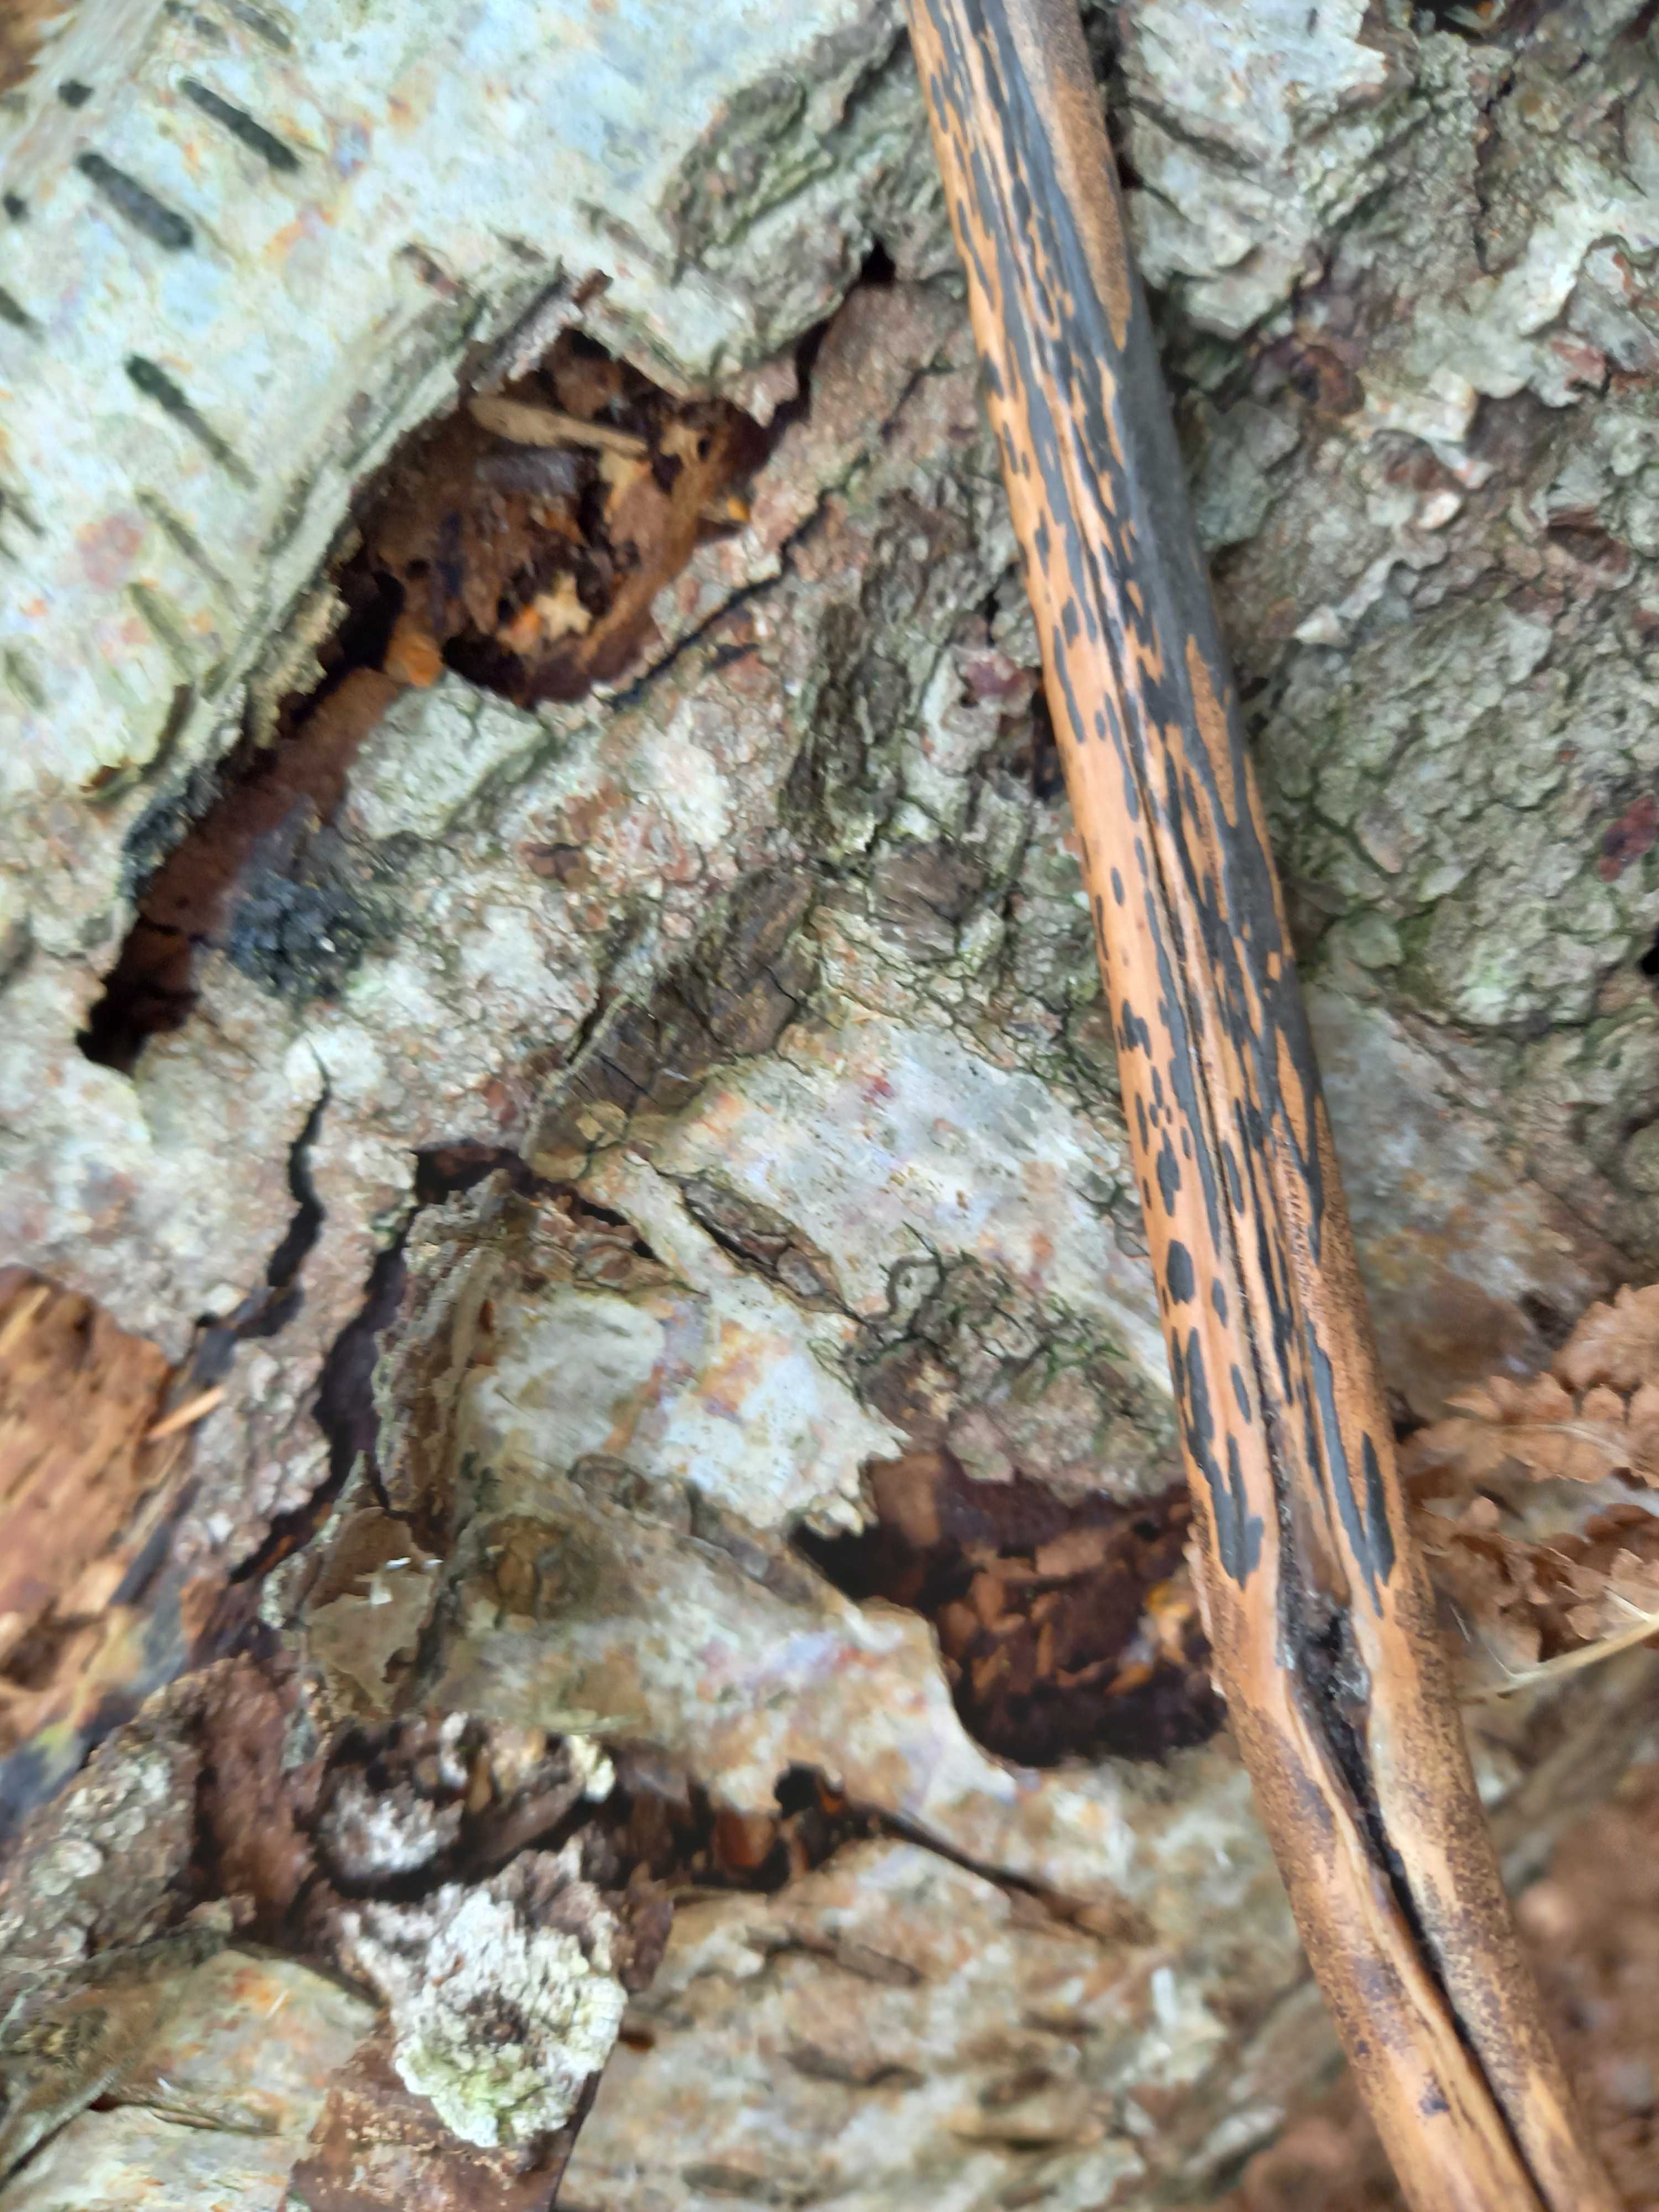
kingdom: Fungi
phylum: Ascomycota
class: Dothideomycetes
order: Pleosporales
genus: Rhopographus
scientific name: Rhopographus filicinus
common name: Bracken map
